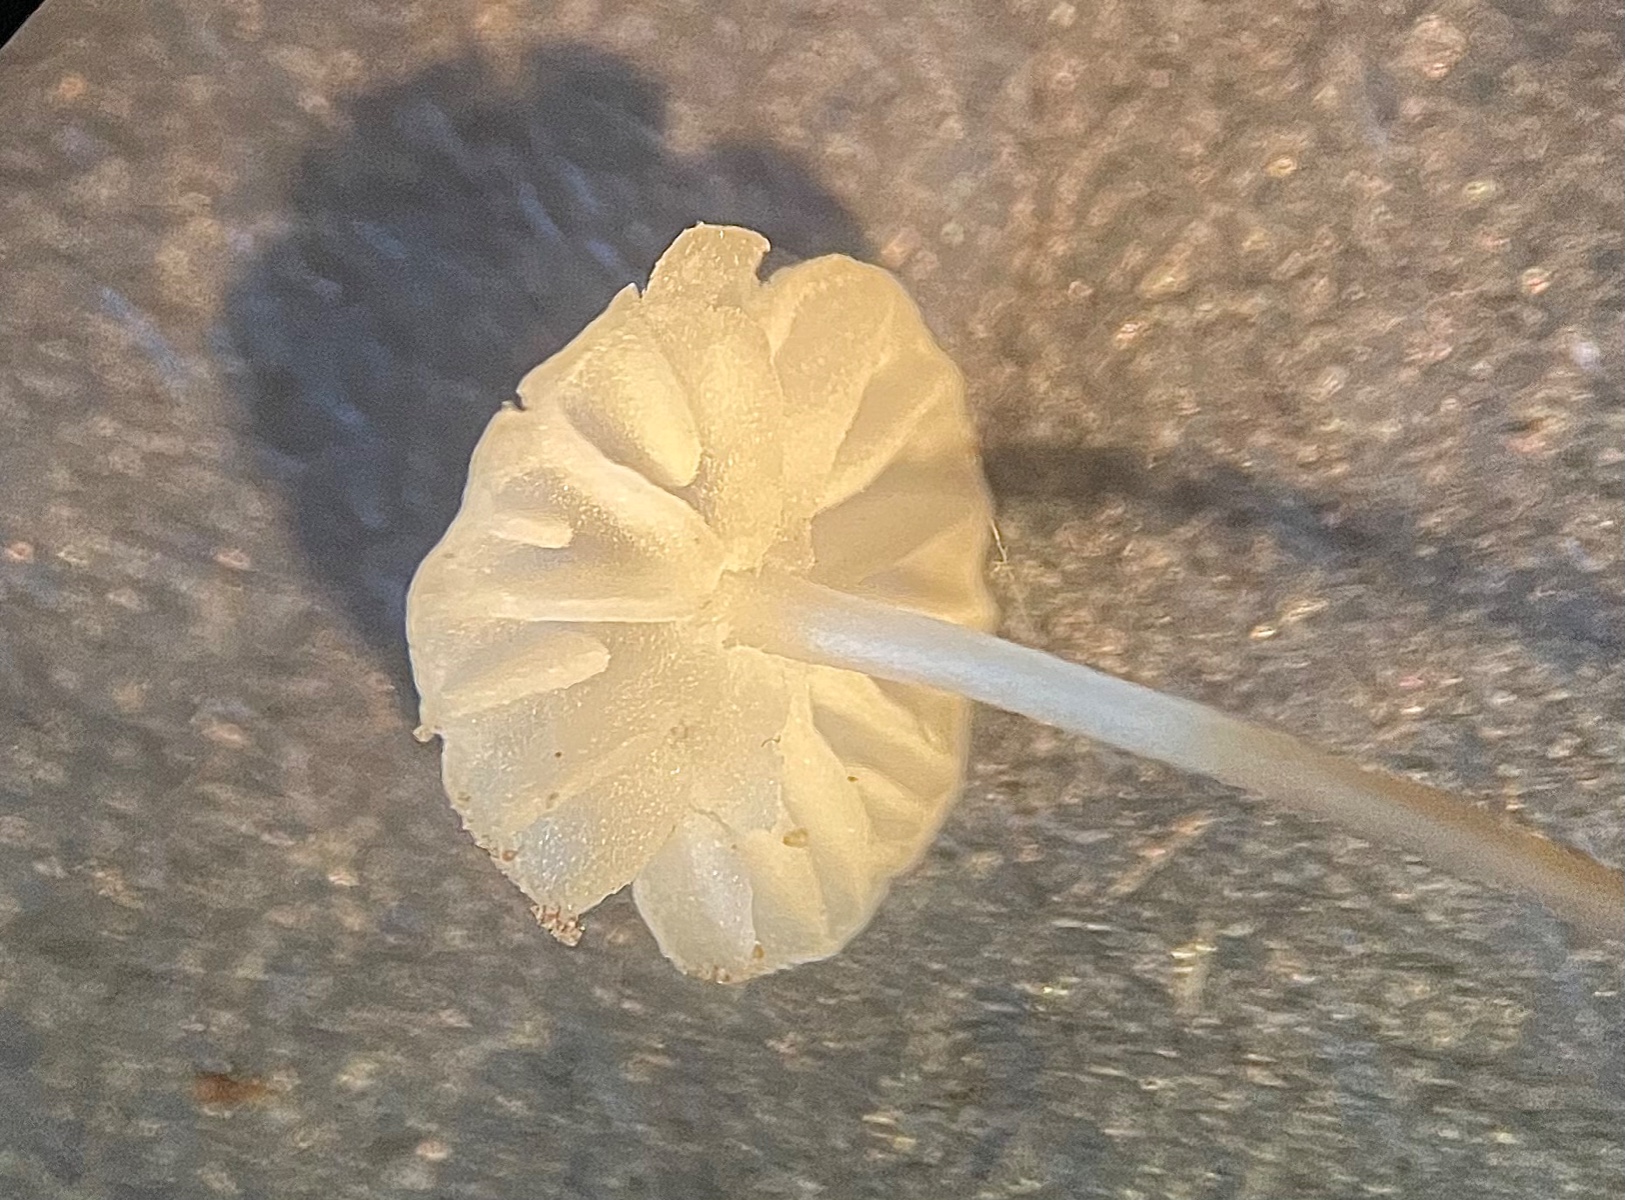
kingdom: Fungi
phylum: Basidiomycota
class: Agaricomycetes
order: Agaricales
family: Marasmiaceae
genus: Marasmius
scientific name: Marasmius
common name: bruskhat
